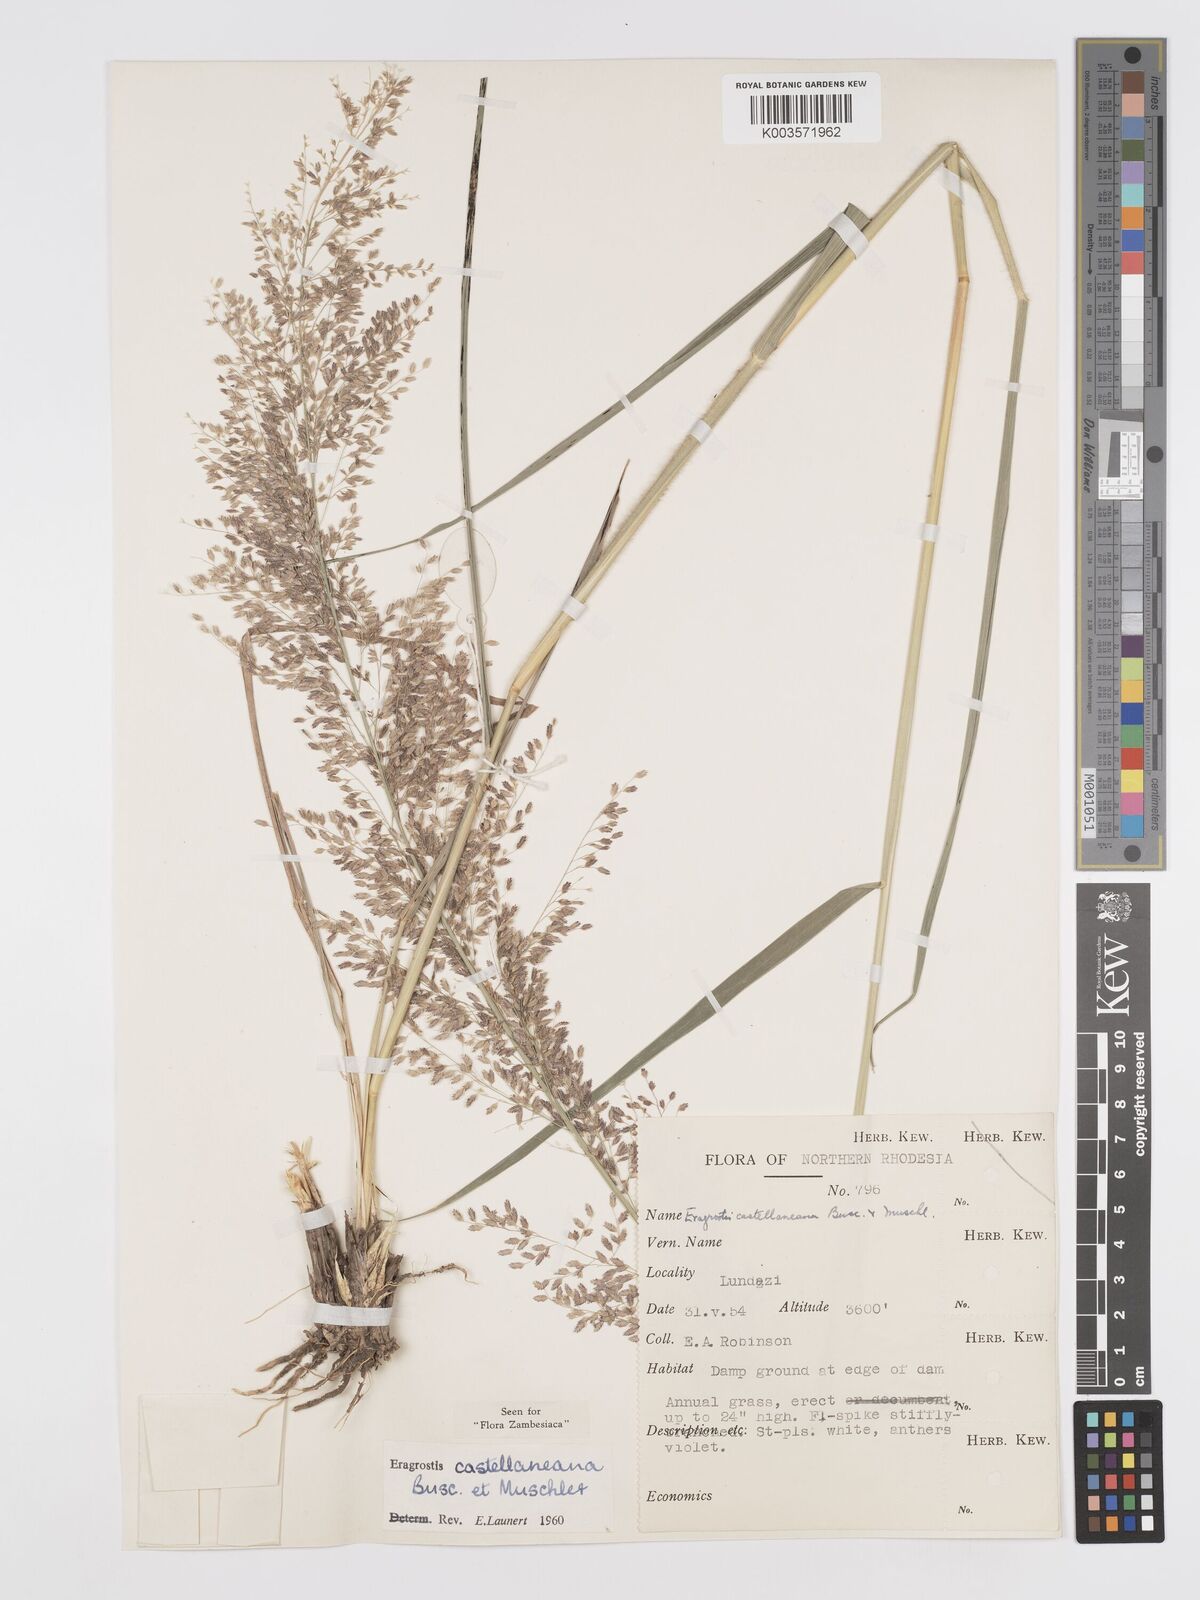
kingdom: Plantae
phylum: Tracheophyta
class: Liliopsida
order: Poales
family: Poaceae
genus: Eragrostis
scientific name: Eragrostis castellaneana
